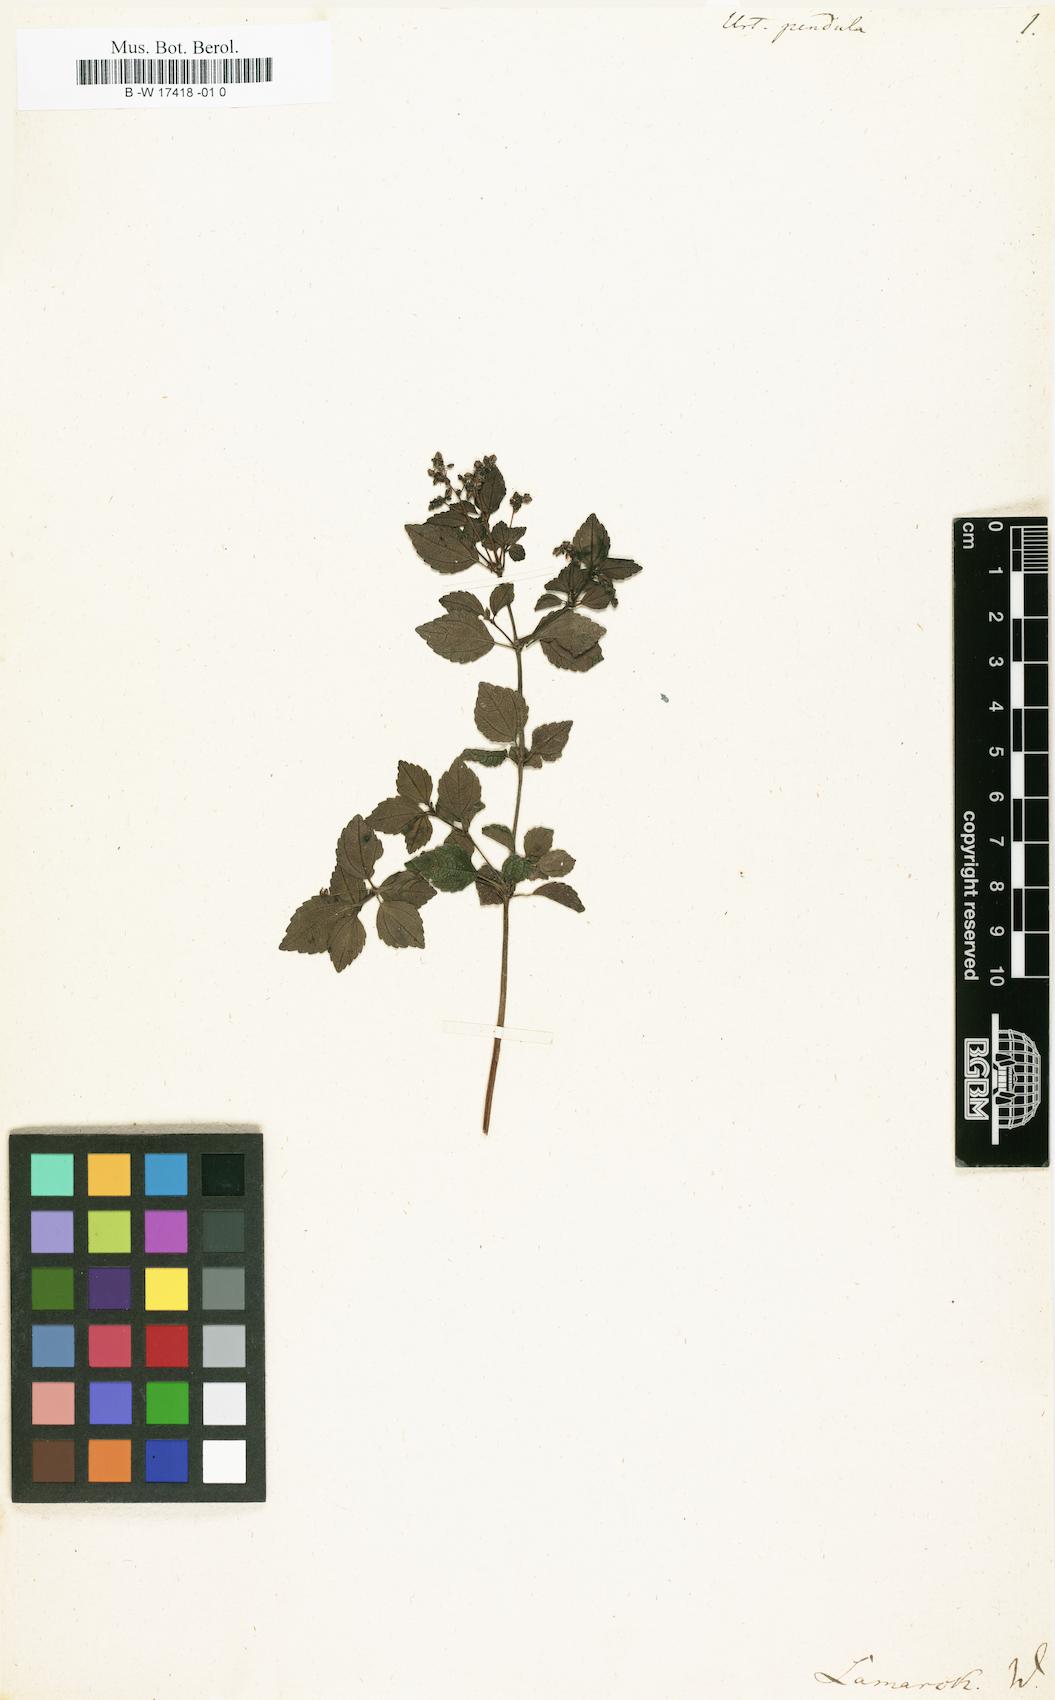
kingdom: Plantae
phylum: Tracheophyta
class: Magnoliopsida
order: Rosales
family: Urticaceae
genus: Pilea
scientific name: Pilea urticifolia
